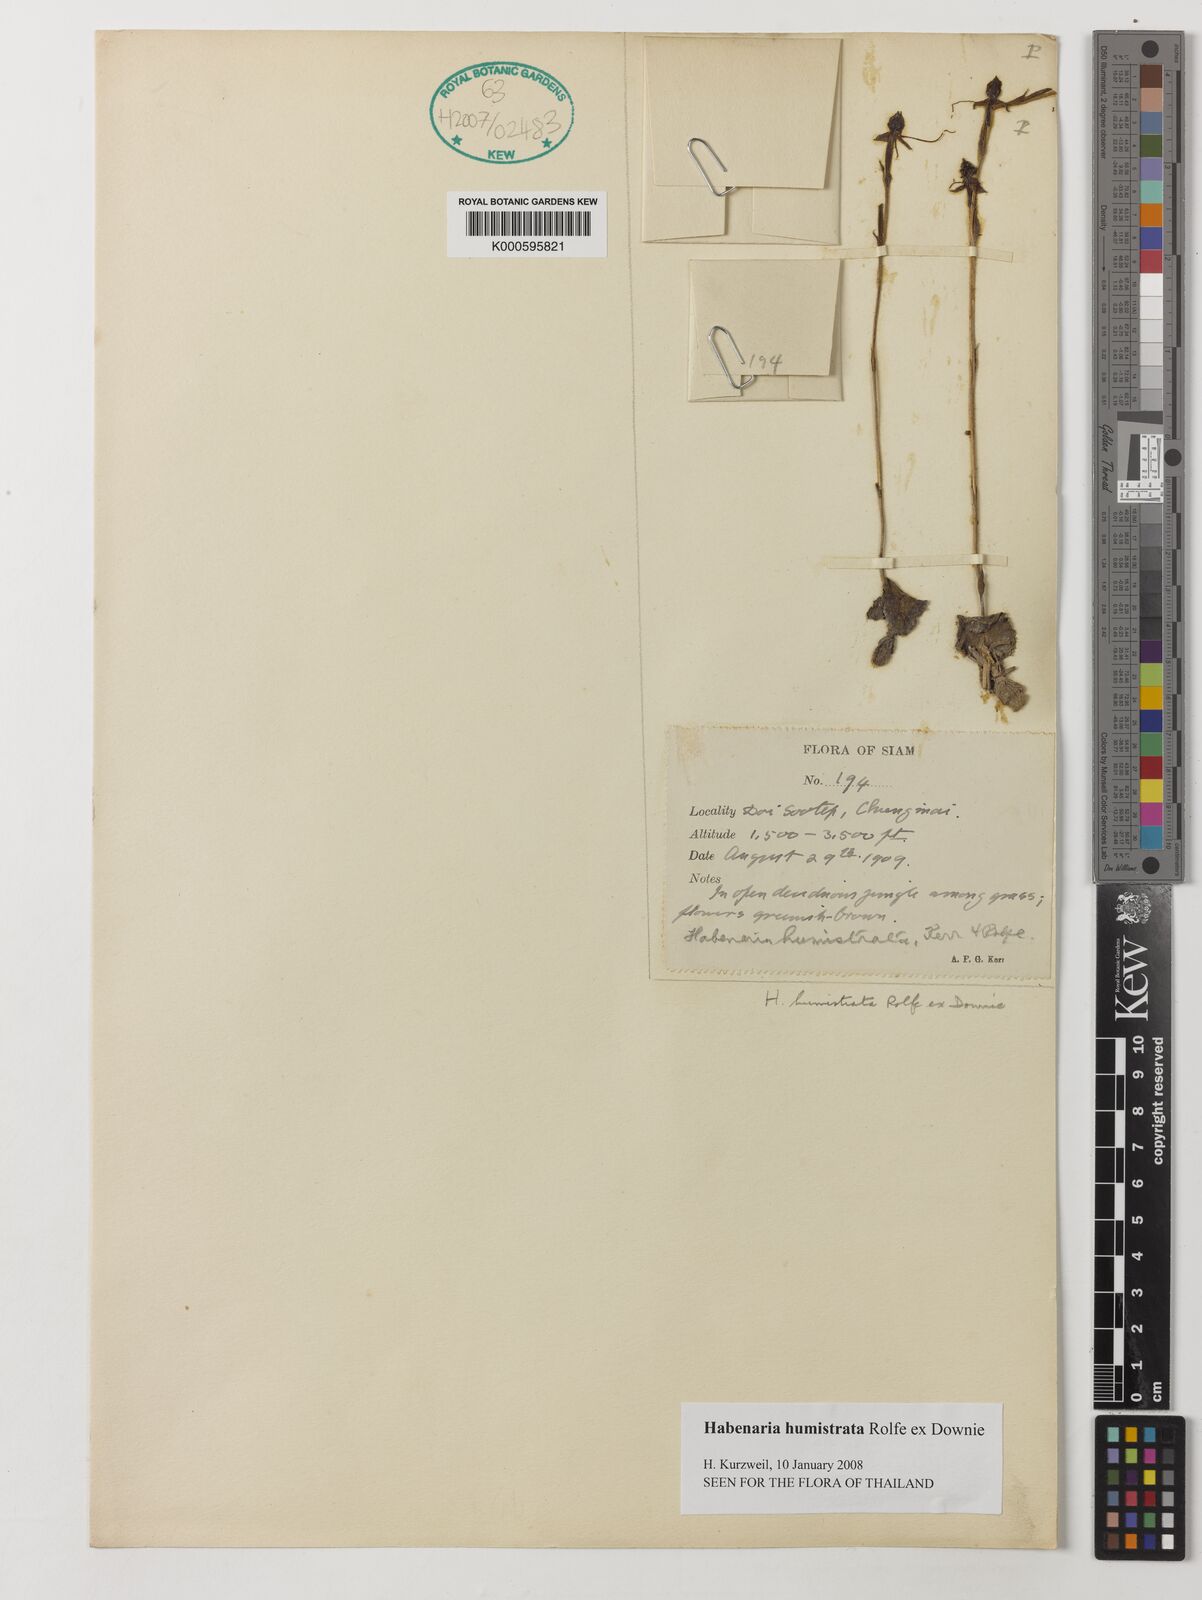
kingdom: Plantae
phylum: Tracheophyta
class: Liliopsida
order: Asparagales
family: Orchidaceae
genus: Habenaria
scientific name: Habenaria diphylla
